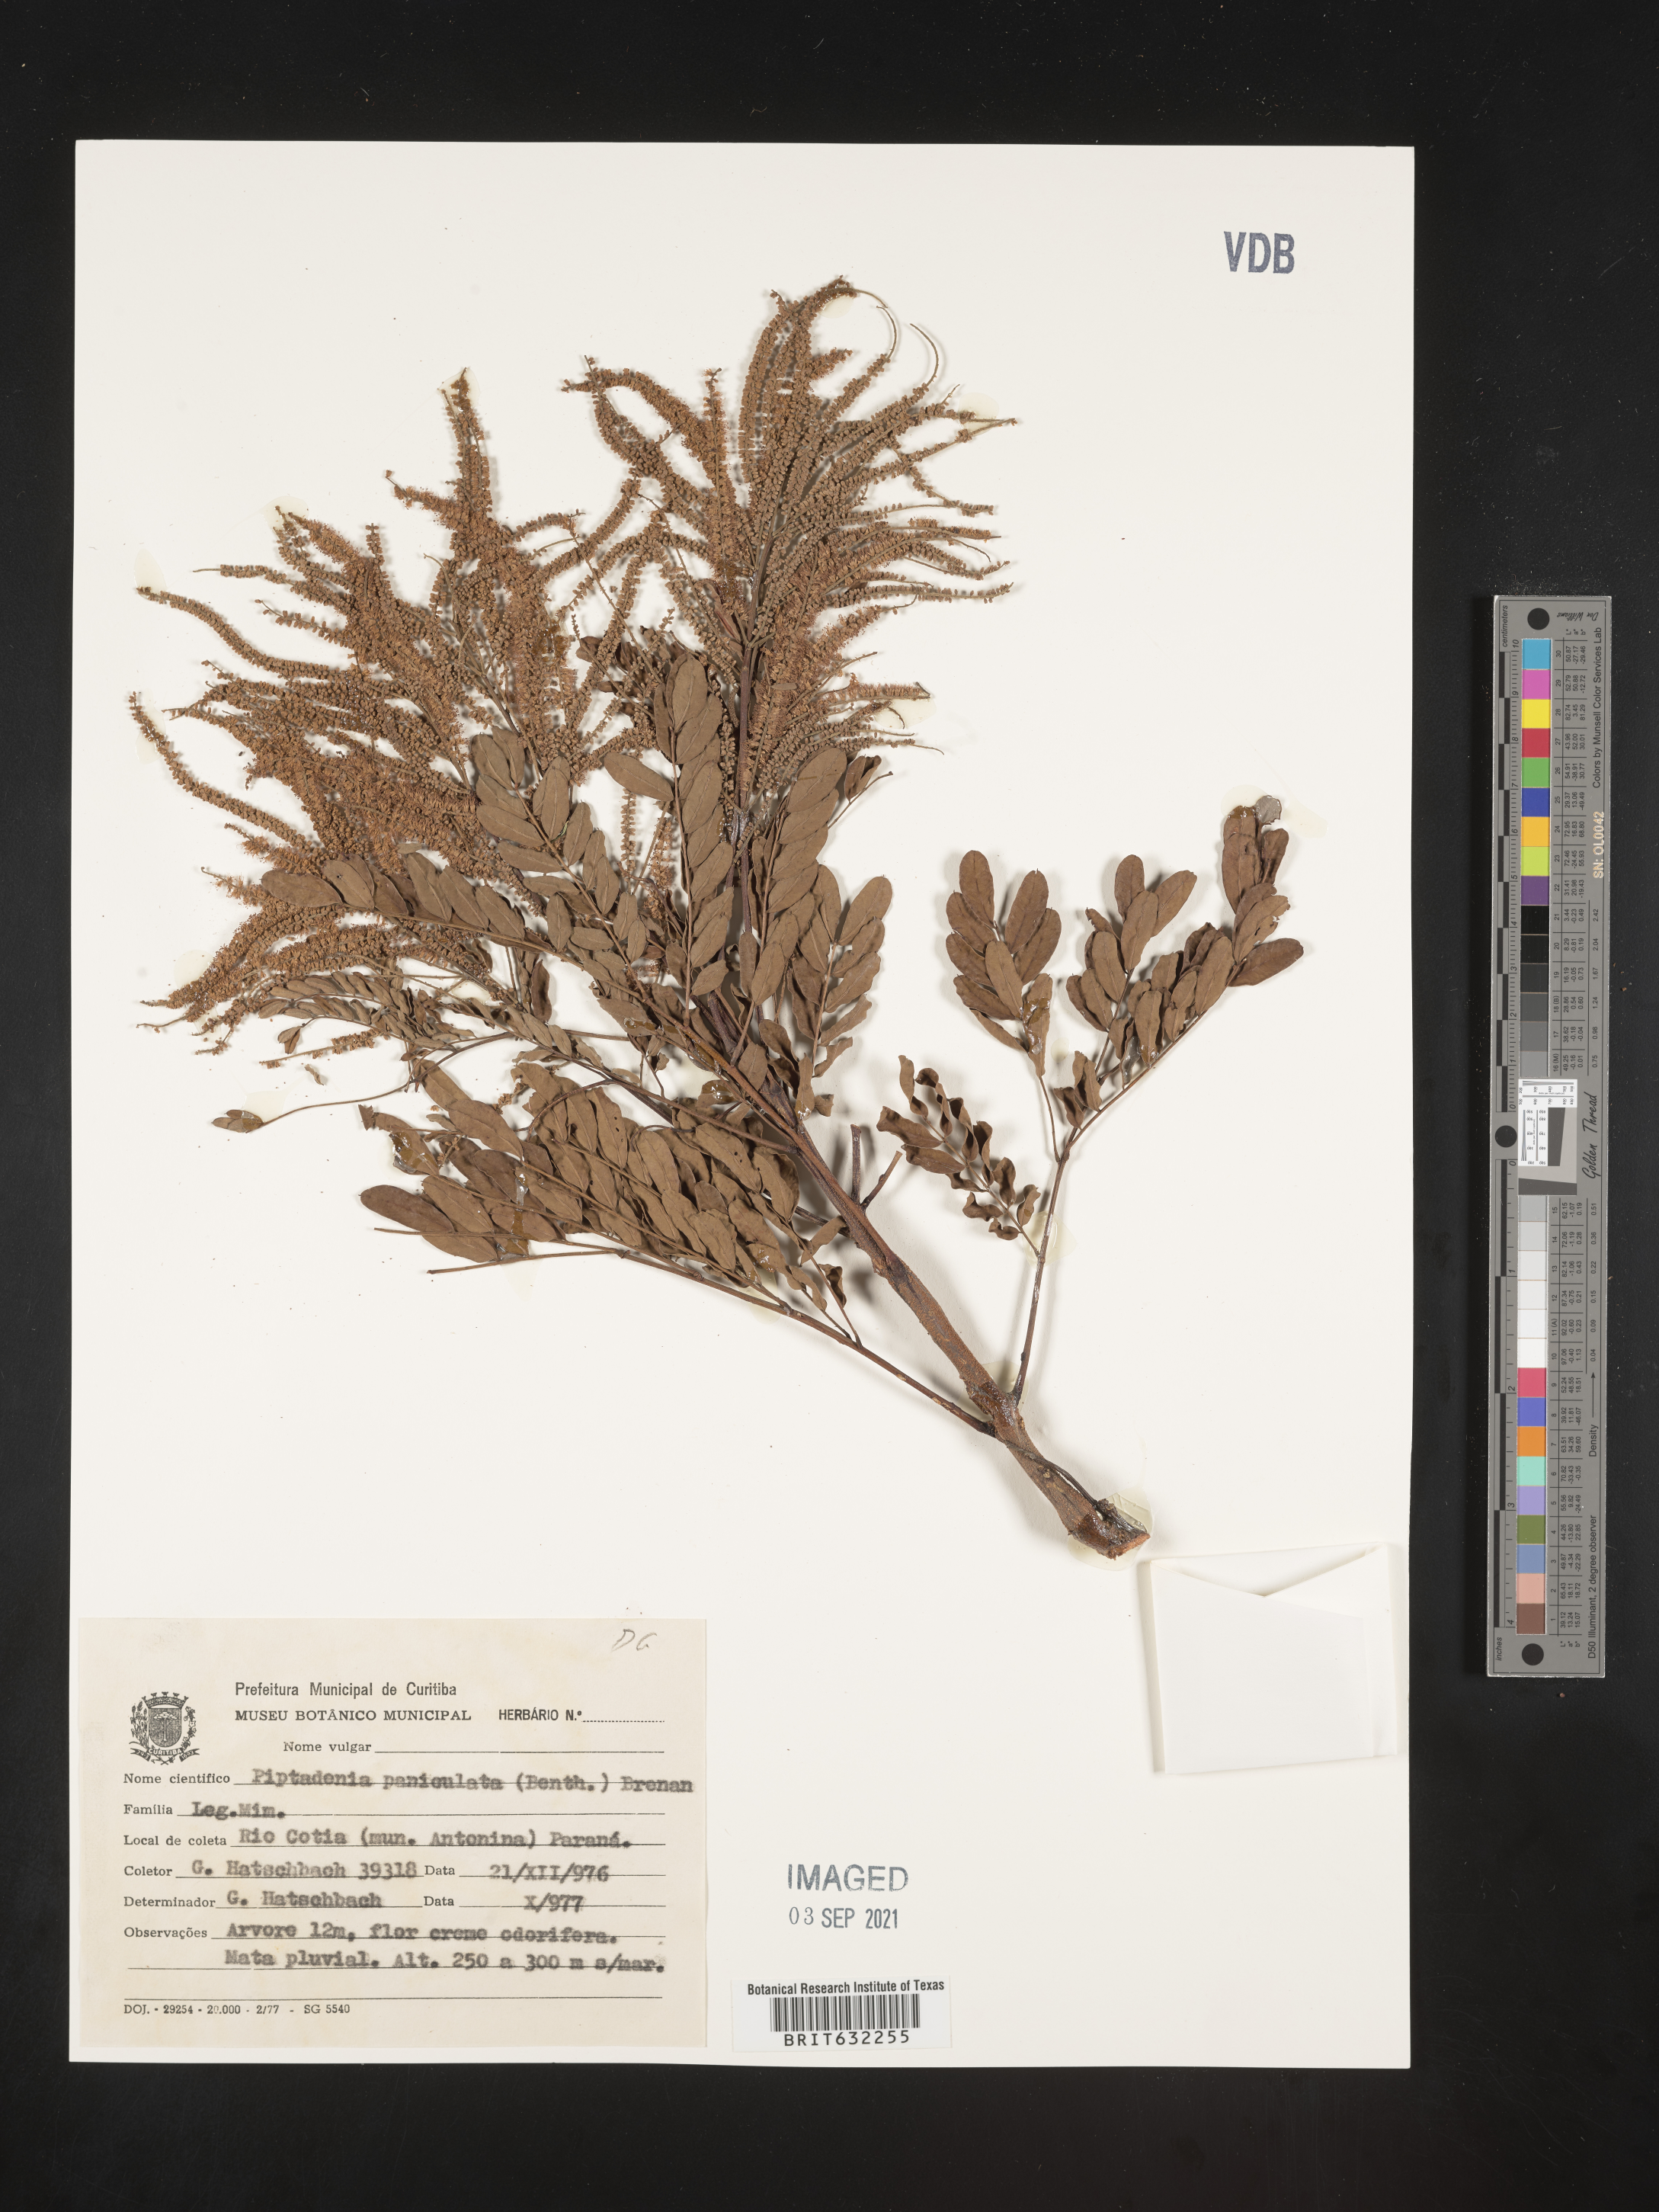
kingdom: Plantae
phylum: Tracheophyta
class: Magnoliopsida
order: Fabales
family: Fabaceae
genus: Piptadenia
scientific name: Piptadenia
